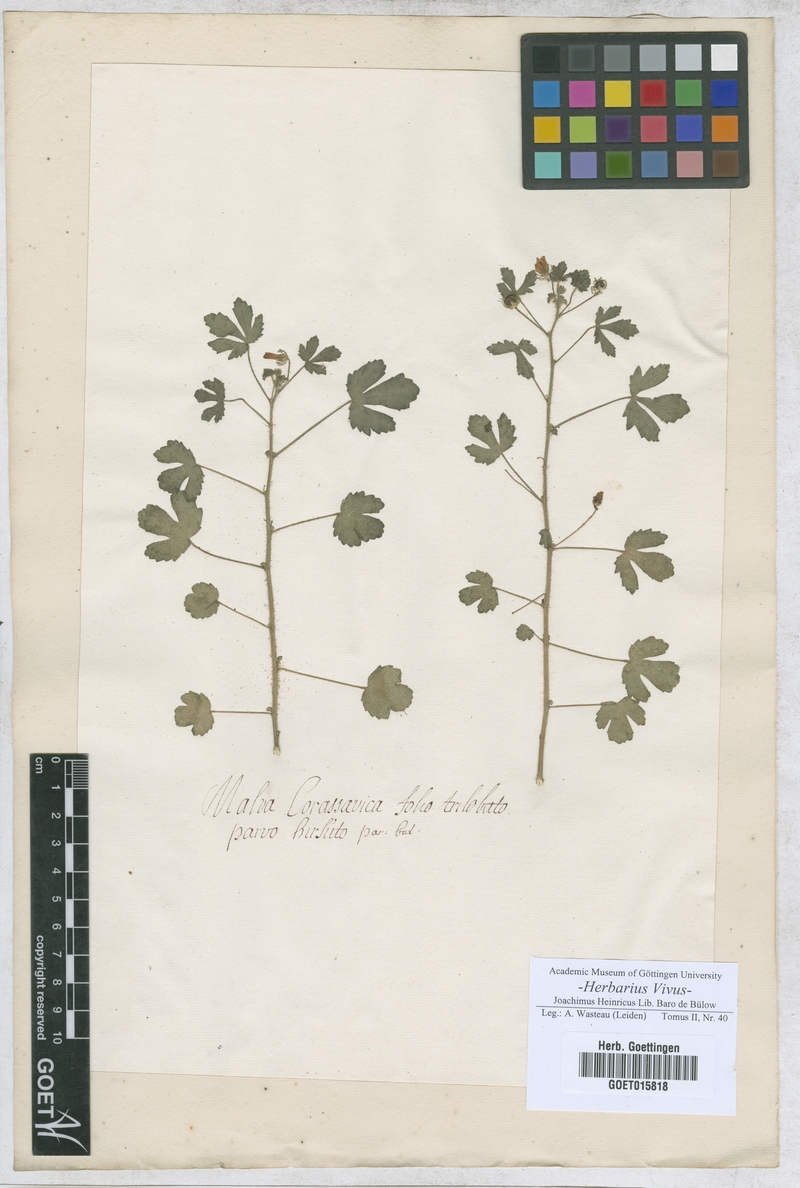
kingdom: Plantae
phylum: Tracheophyta
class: Magnoliopsida
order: Malvales
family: Malvaceae
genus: Malva
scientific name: Malva
